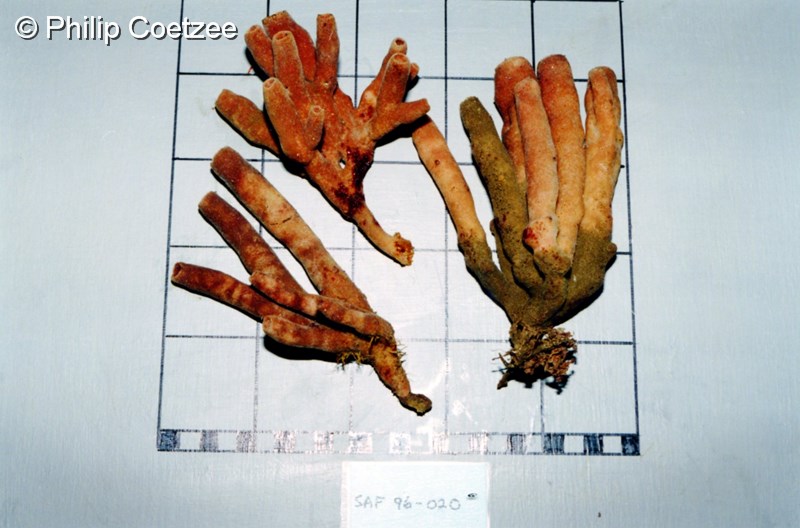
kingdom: Animalia
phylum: Porifera
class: Demospongiae
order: Axinellida
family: Axinellidae
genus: Auletta
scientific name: Auletta
